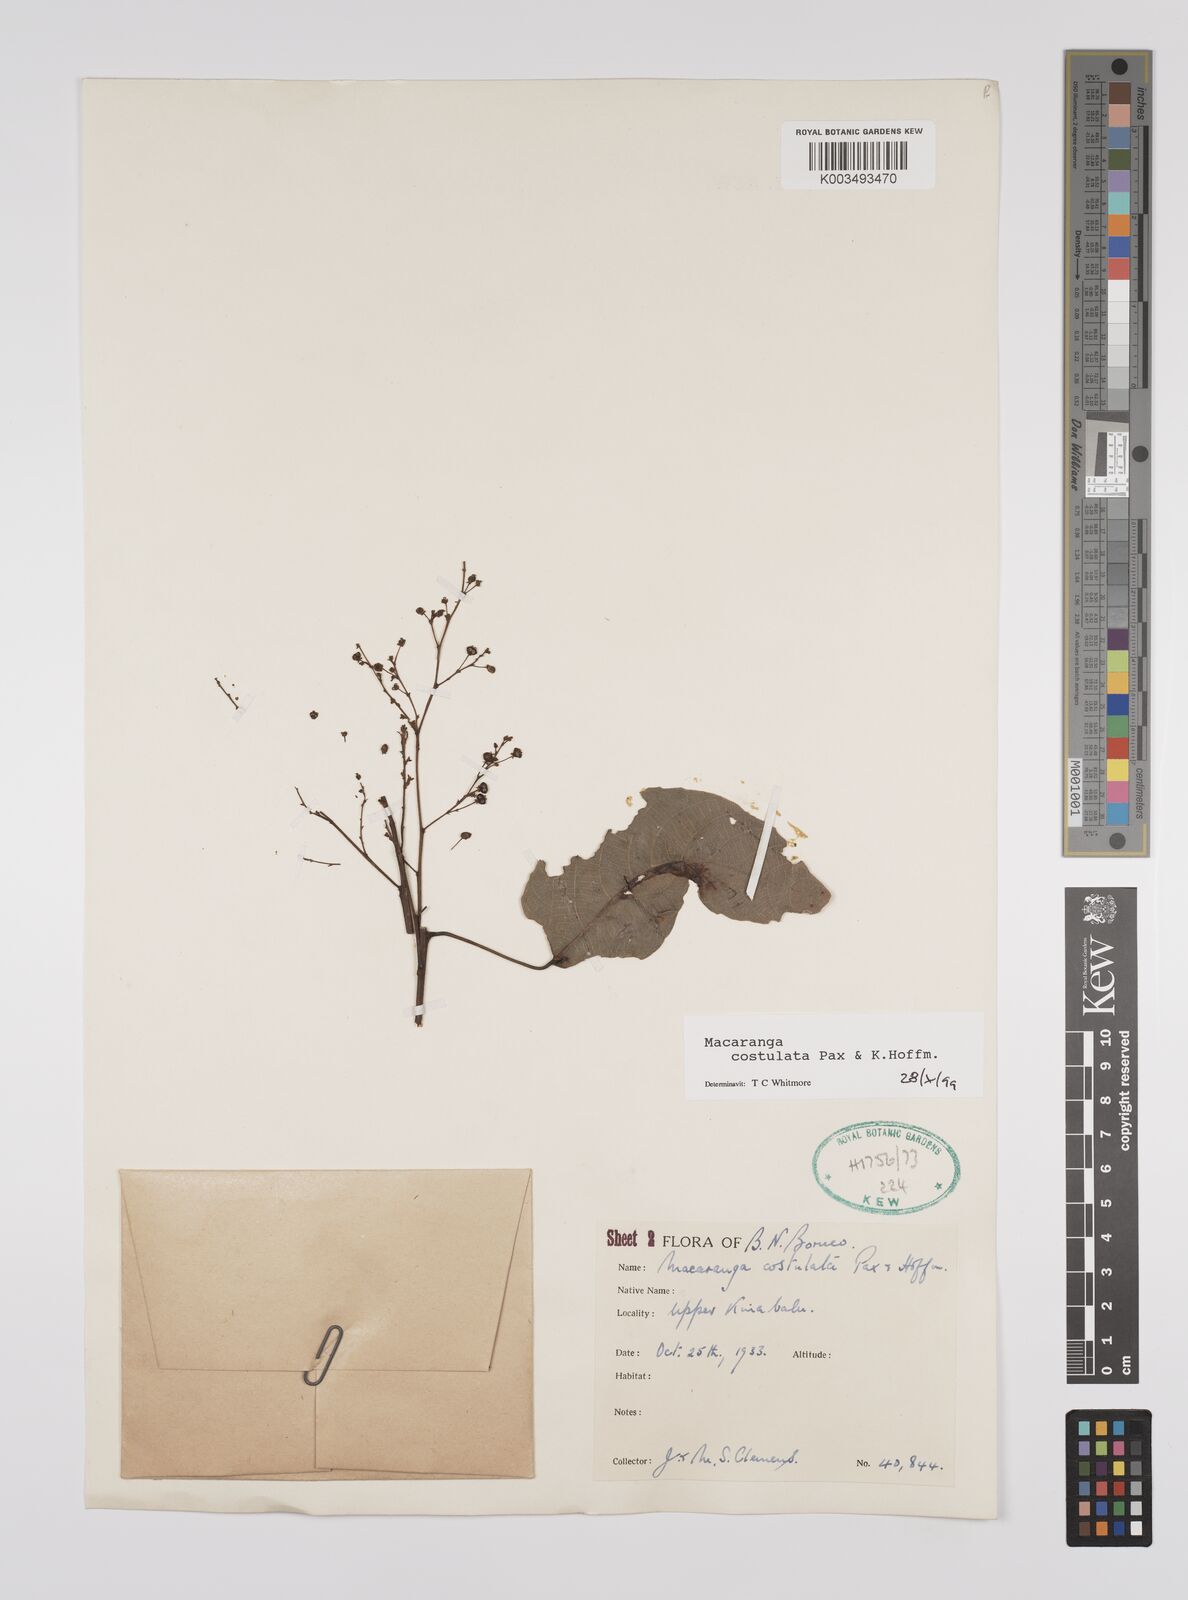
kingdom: Plantae
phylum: Tracheophyta
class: Magnoliopsida
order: Malpighiales
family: Euphorbiaceae
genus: Macaranga
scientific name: Macaranga costulata
